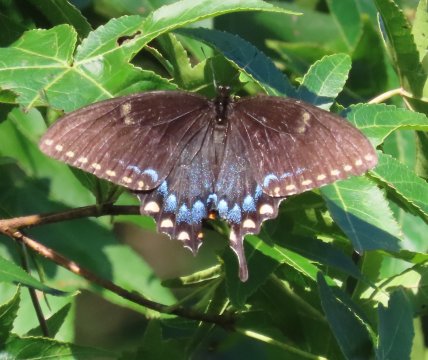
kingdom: Animalia
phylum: Arthropoda
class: Insecta
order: Lepidoptera
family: Papilionidae
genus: Pterourus
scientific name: Pterourus glaucus
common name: Eastern Tiger Swallowtail
